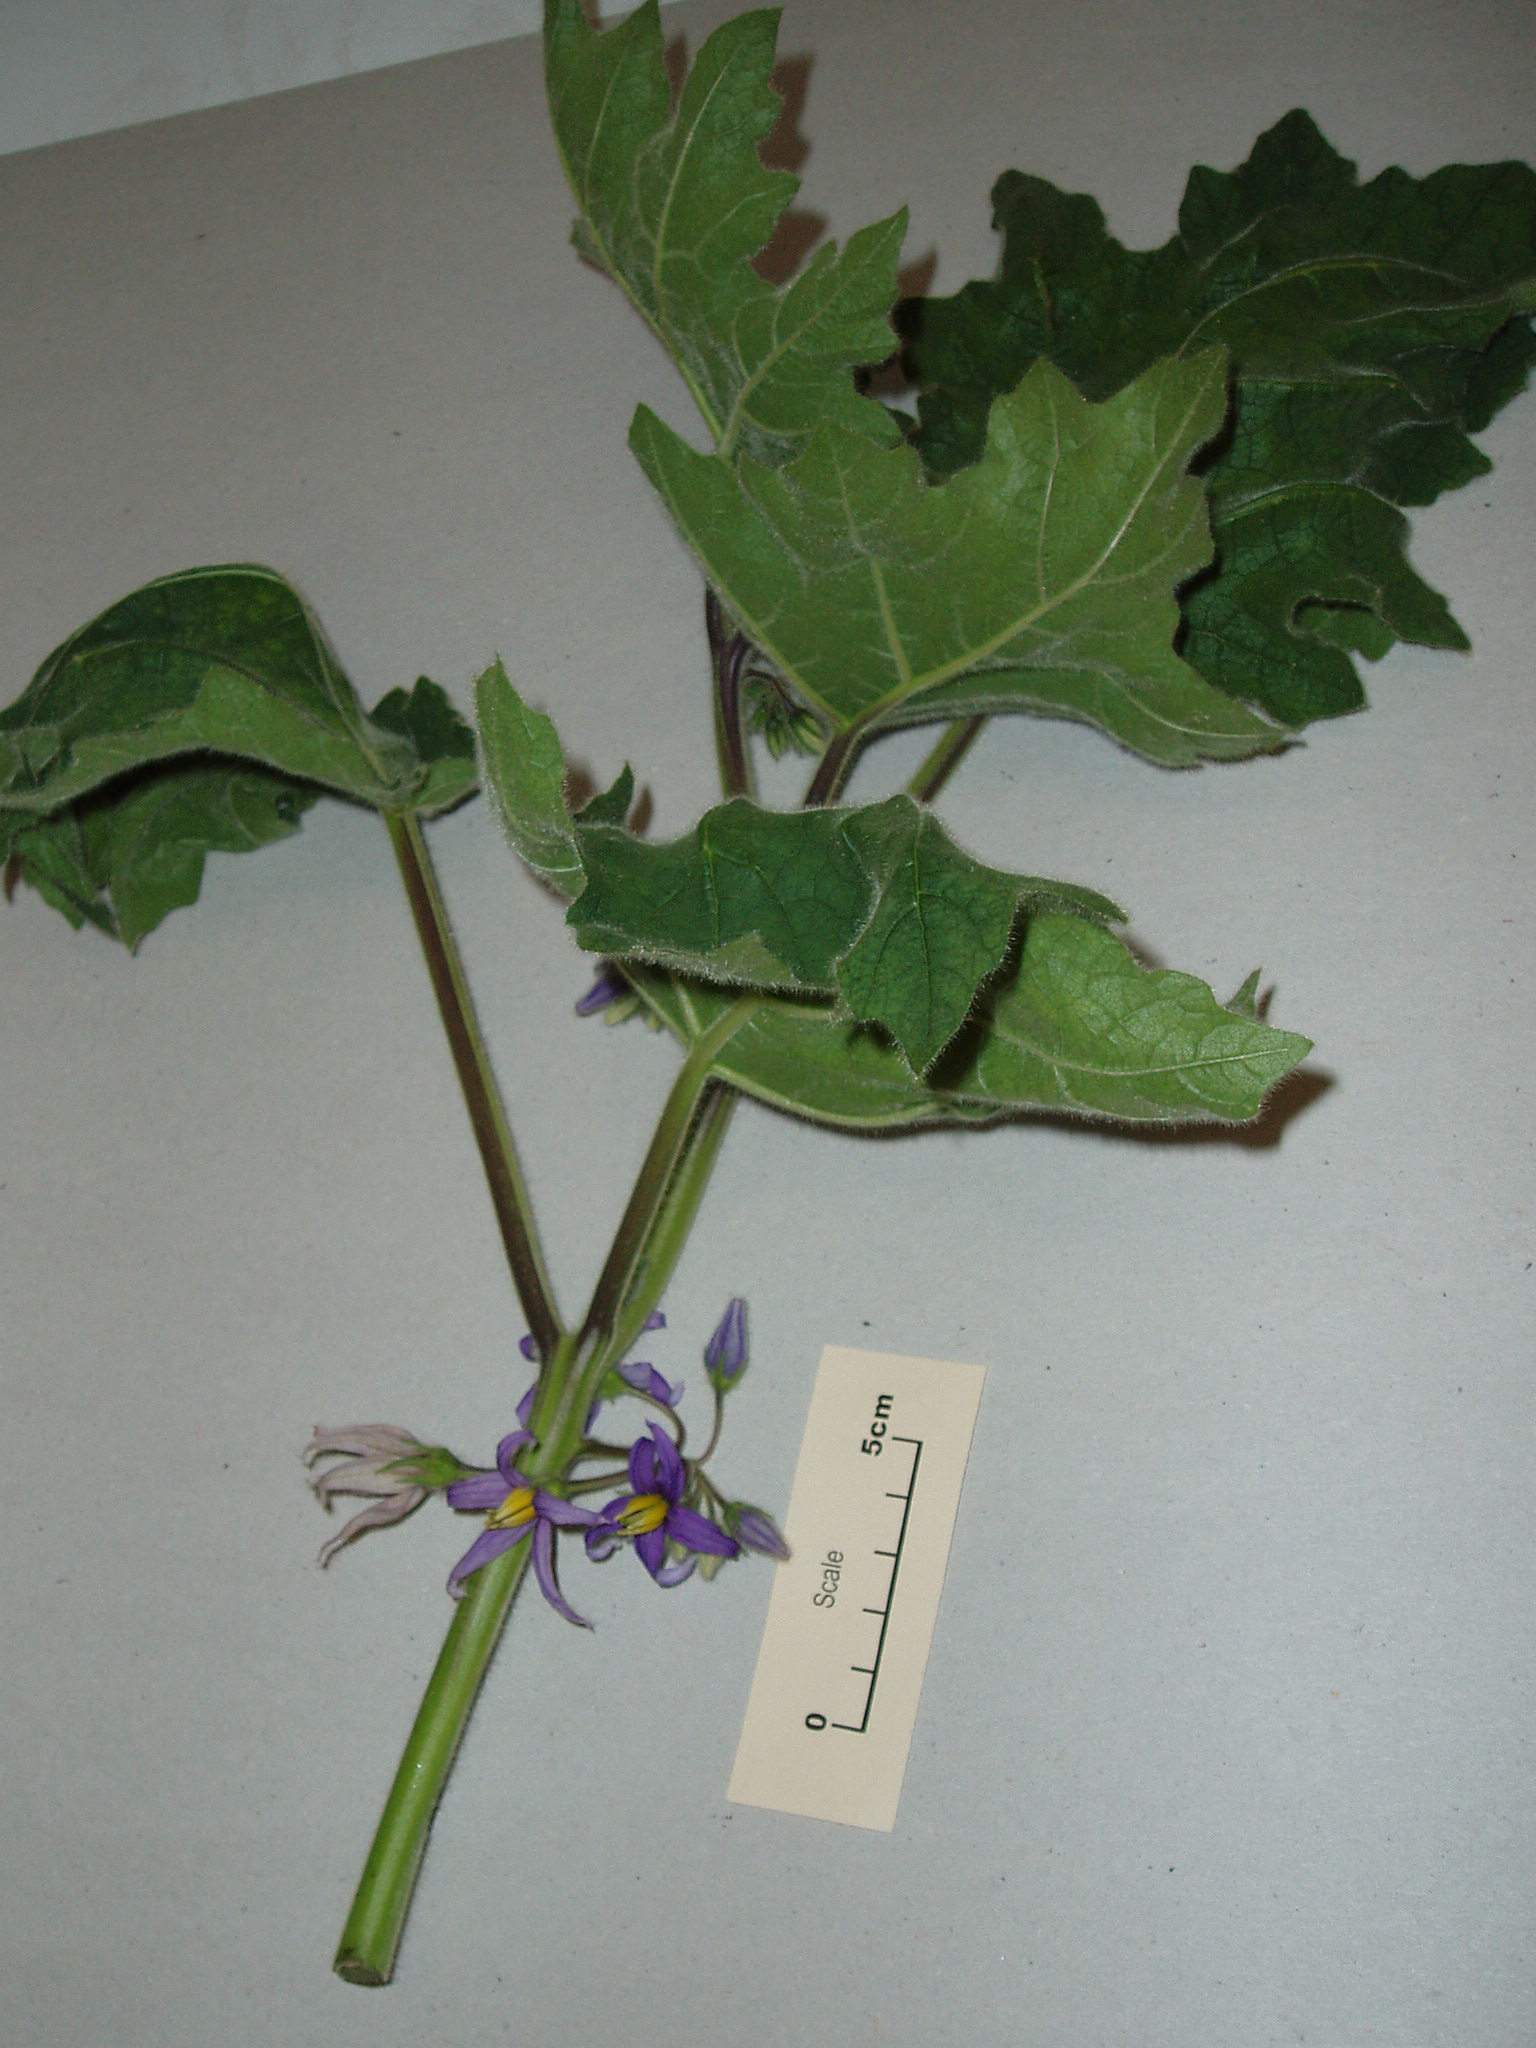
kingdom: Plantae
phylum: Tracheophyta
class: Magnoliopsida
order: Solanales
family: Solanaceae
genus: Solanum
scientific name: Solanum mammosum
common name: Nipple fruit
